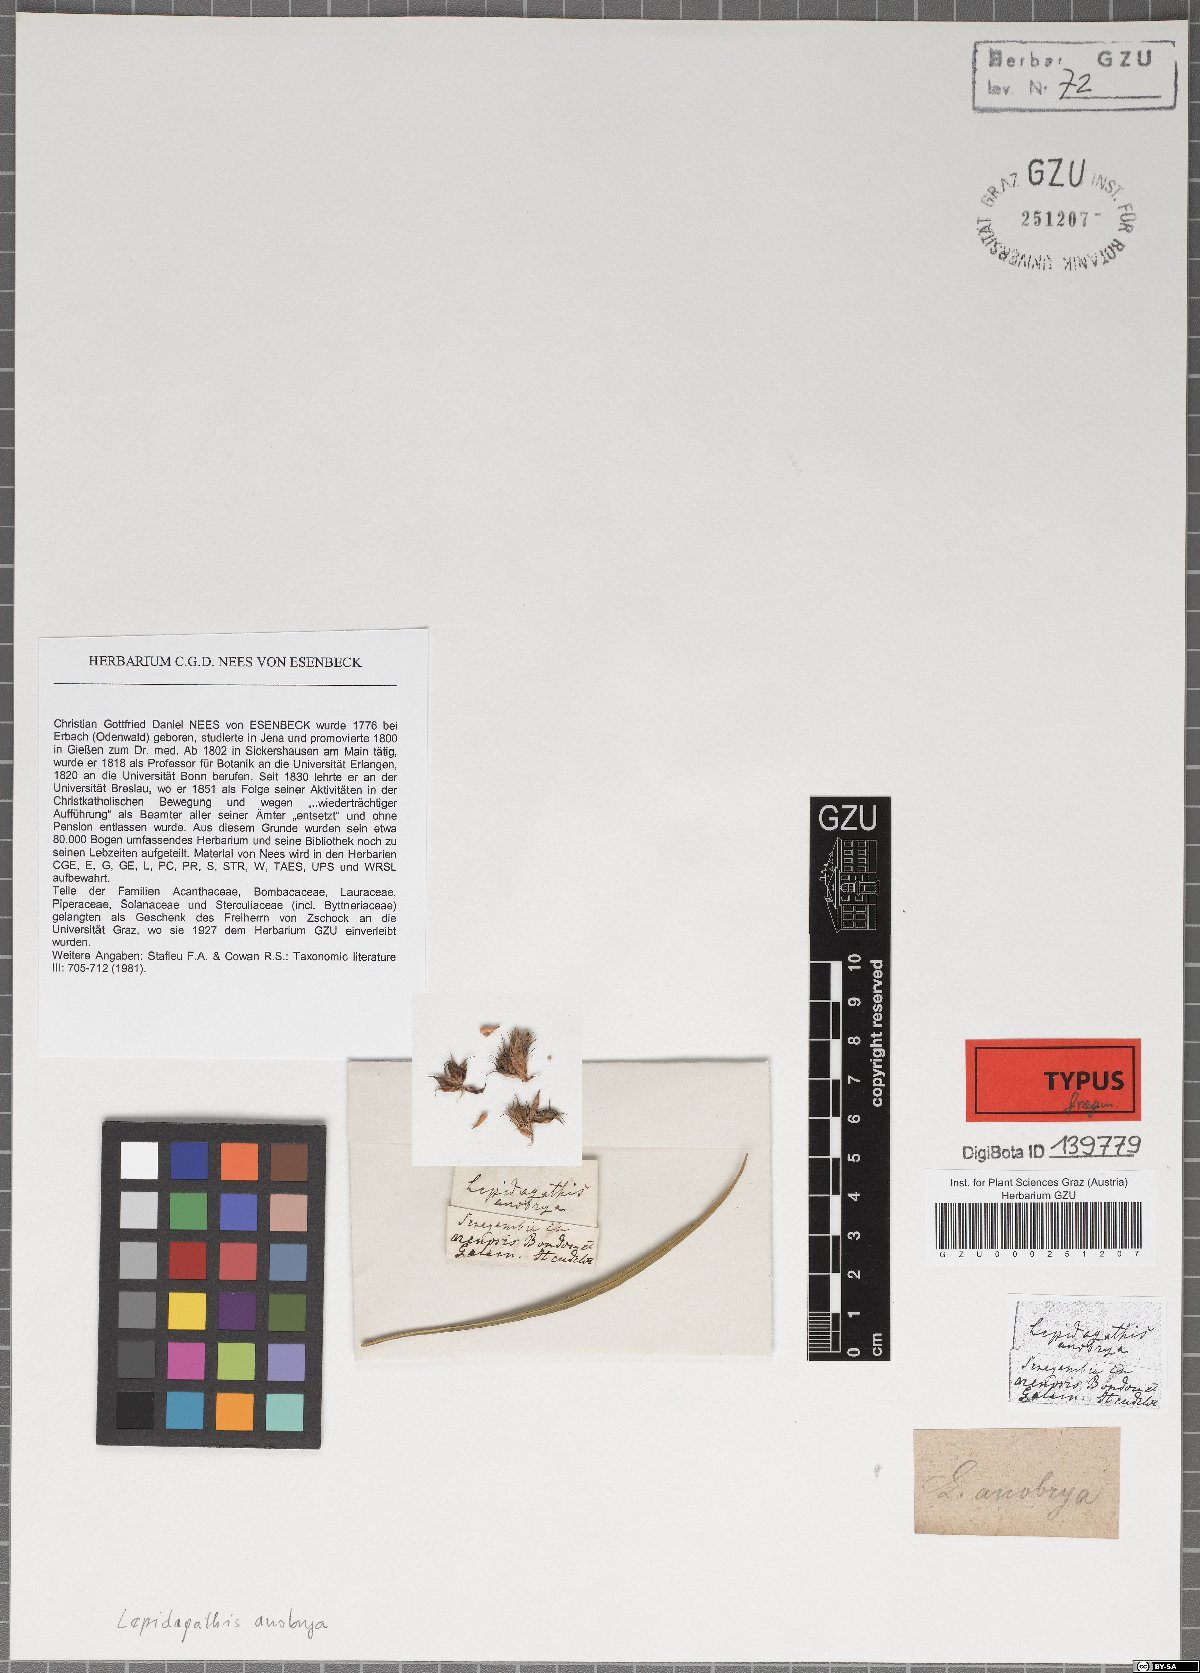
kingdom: Plantae
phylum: Tracheophyta
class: Magnoliopsida
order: Lamiales
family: Acanthaceae
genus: Lepidagathis
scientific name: Lepidagathis anobrya
